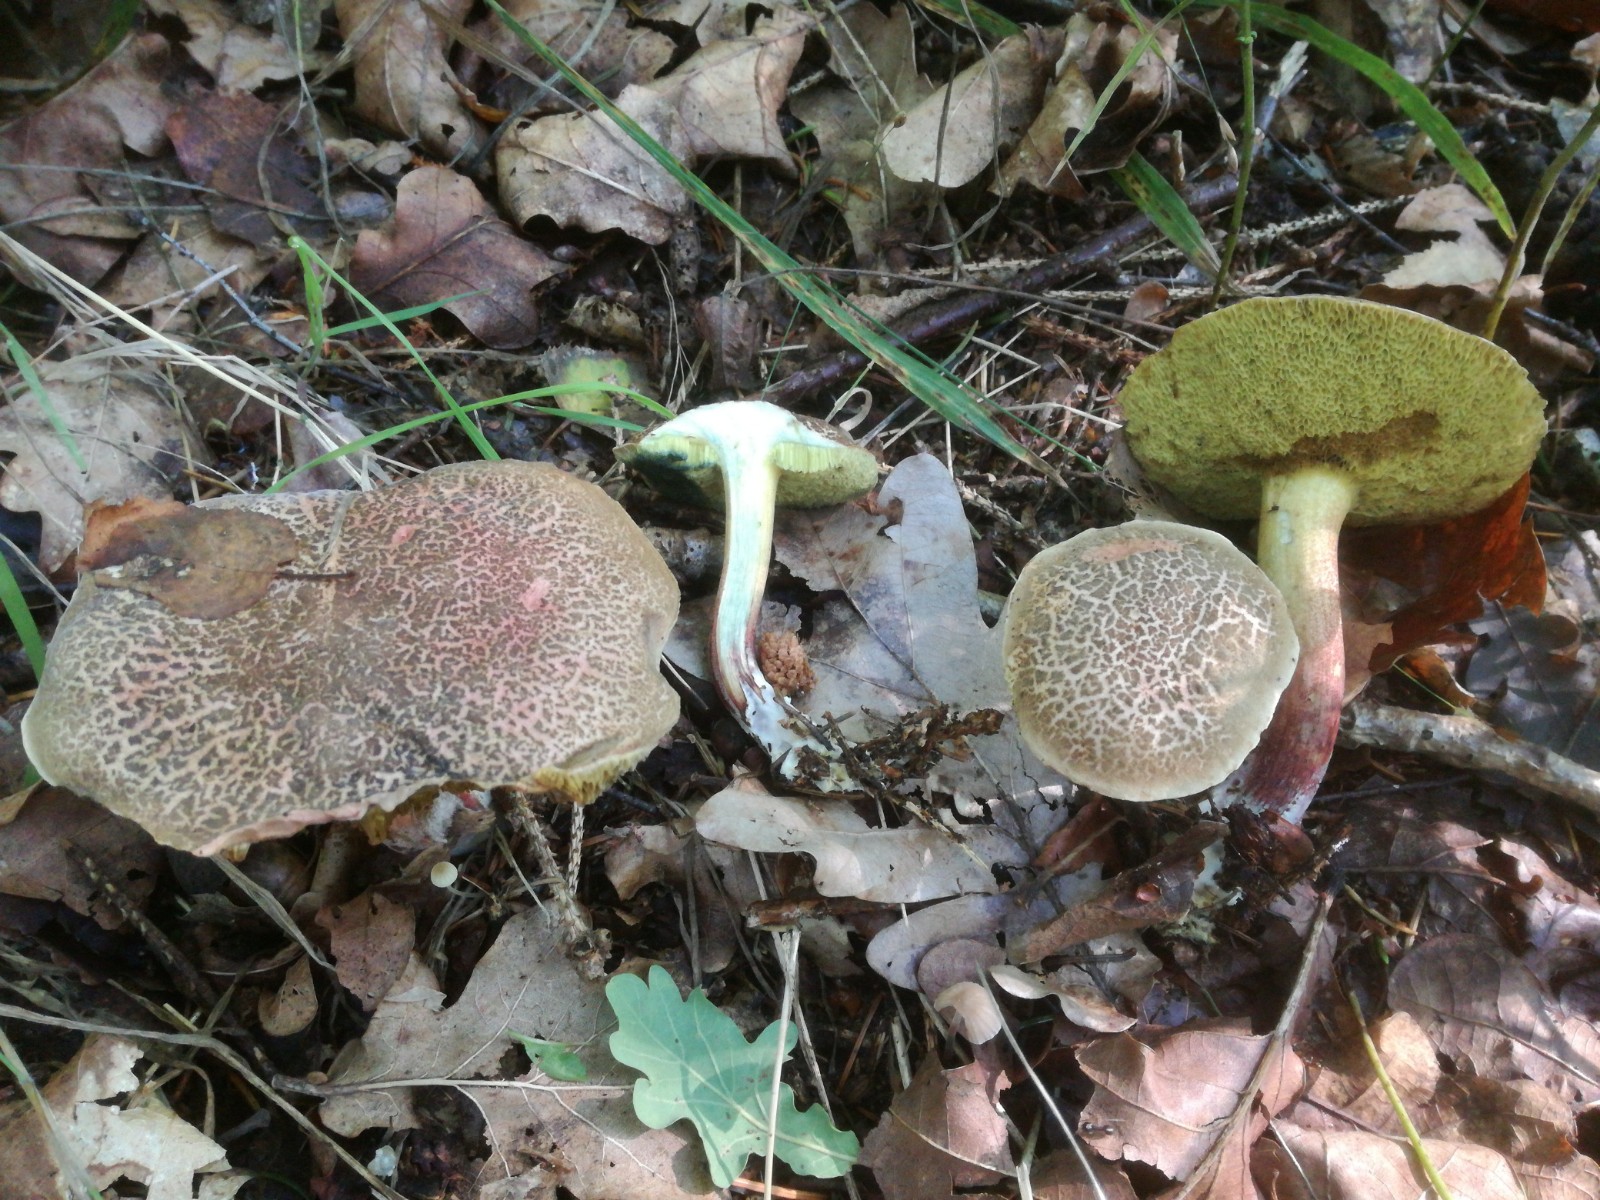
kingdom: Fungi
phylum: Basidiomycota
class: Agaricomycetes
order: Boletales
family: Boletaceae
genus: Xerocomellus
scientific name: Xerocomellus cisalpinus
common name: finsprukken rørhat
